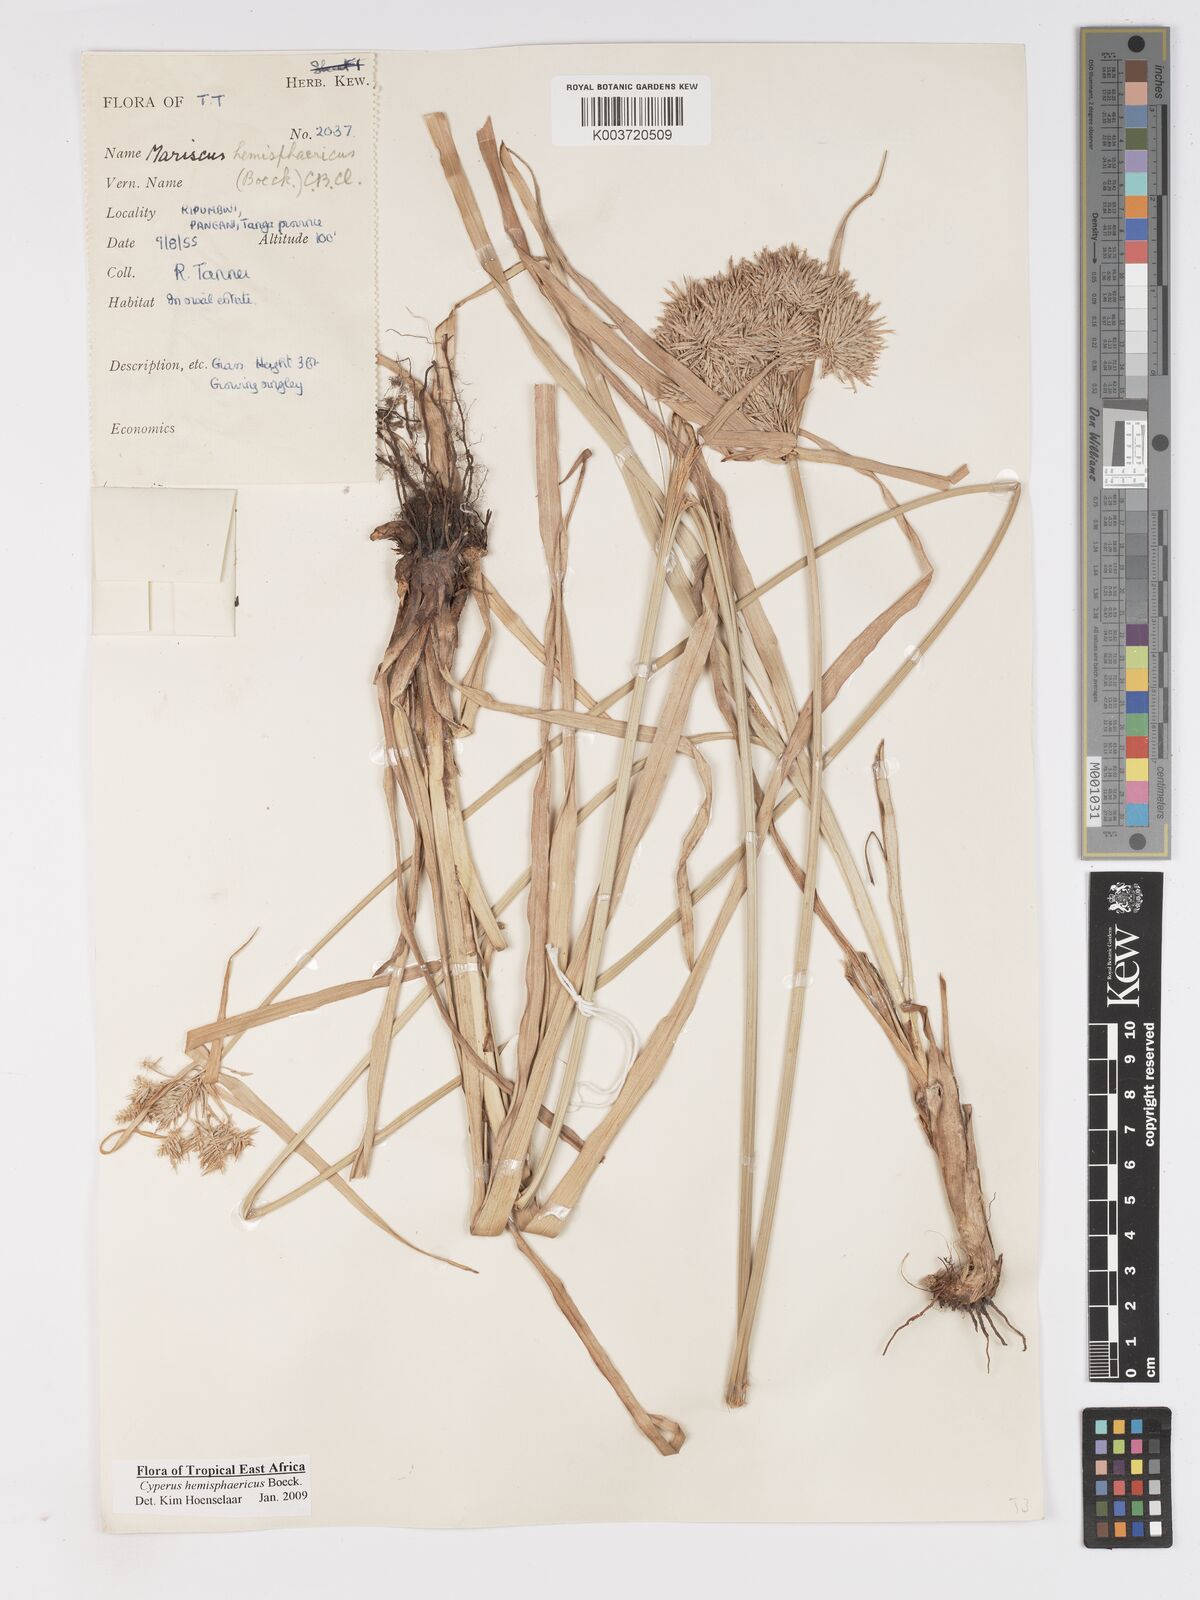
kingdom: Plantae
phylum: Tracheophyta
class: Liliopsida
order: Poales
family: Cyperaceae
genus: Cyperus
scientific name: Cyperus hemisphaericus
